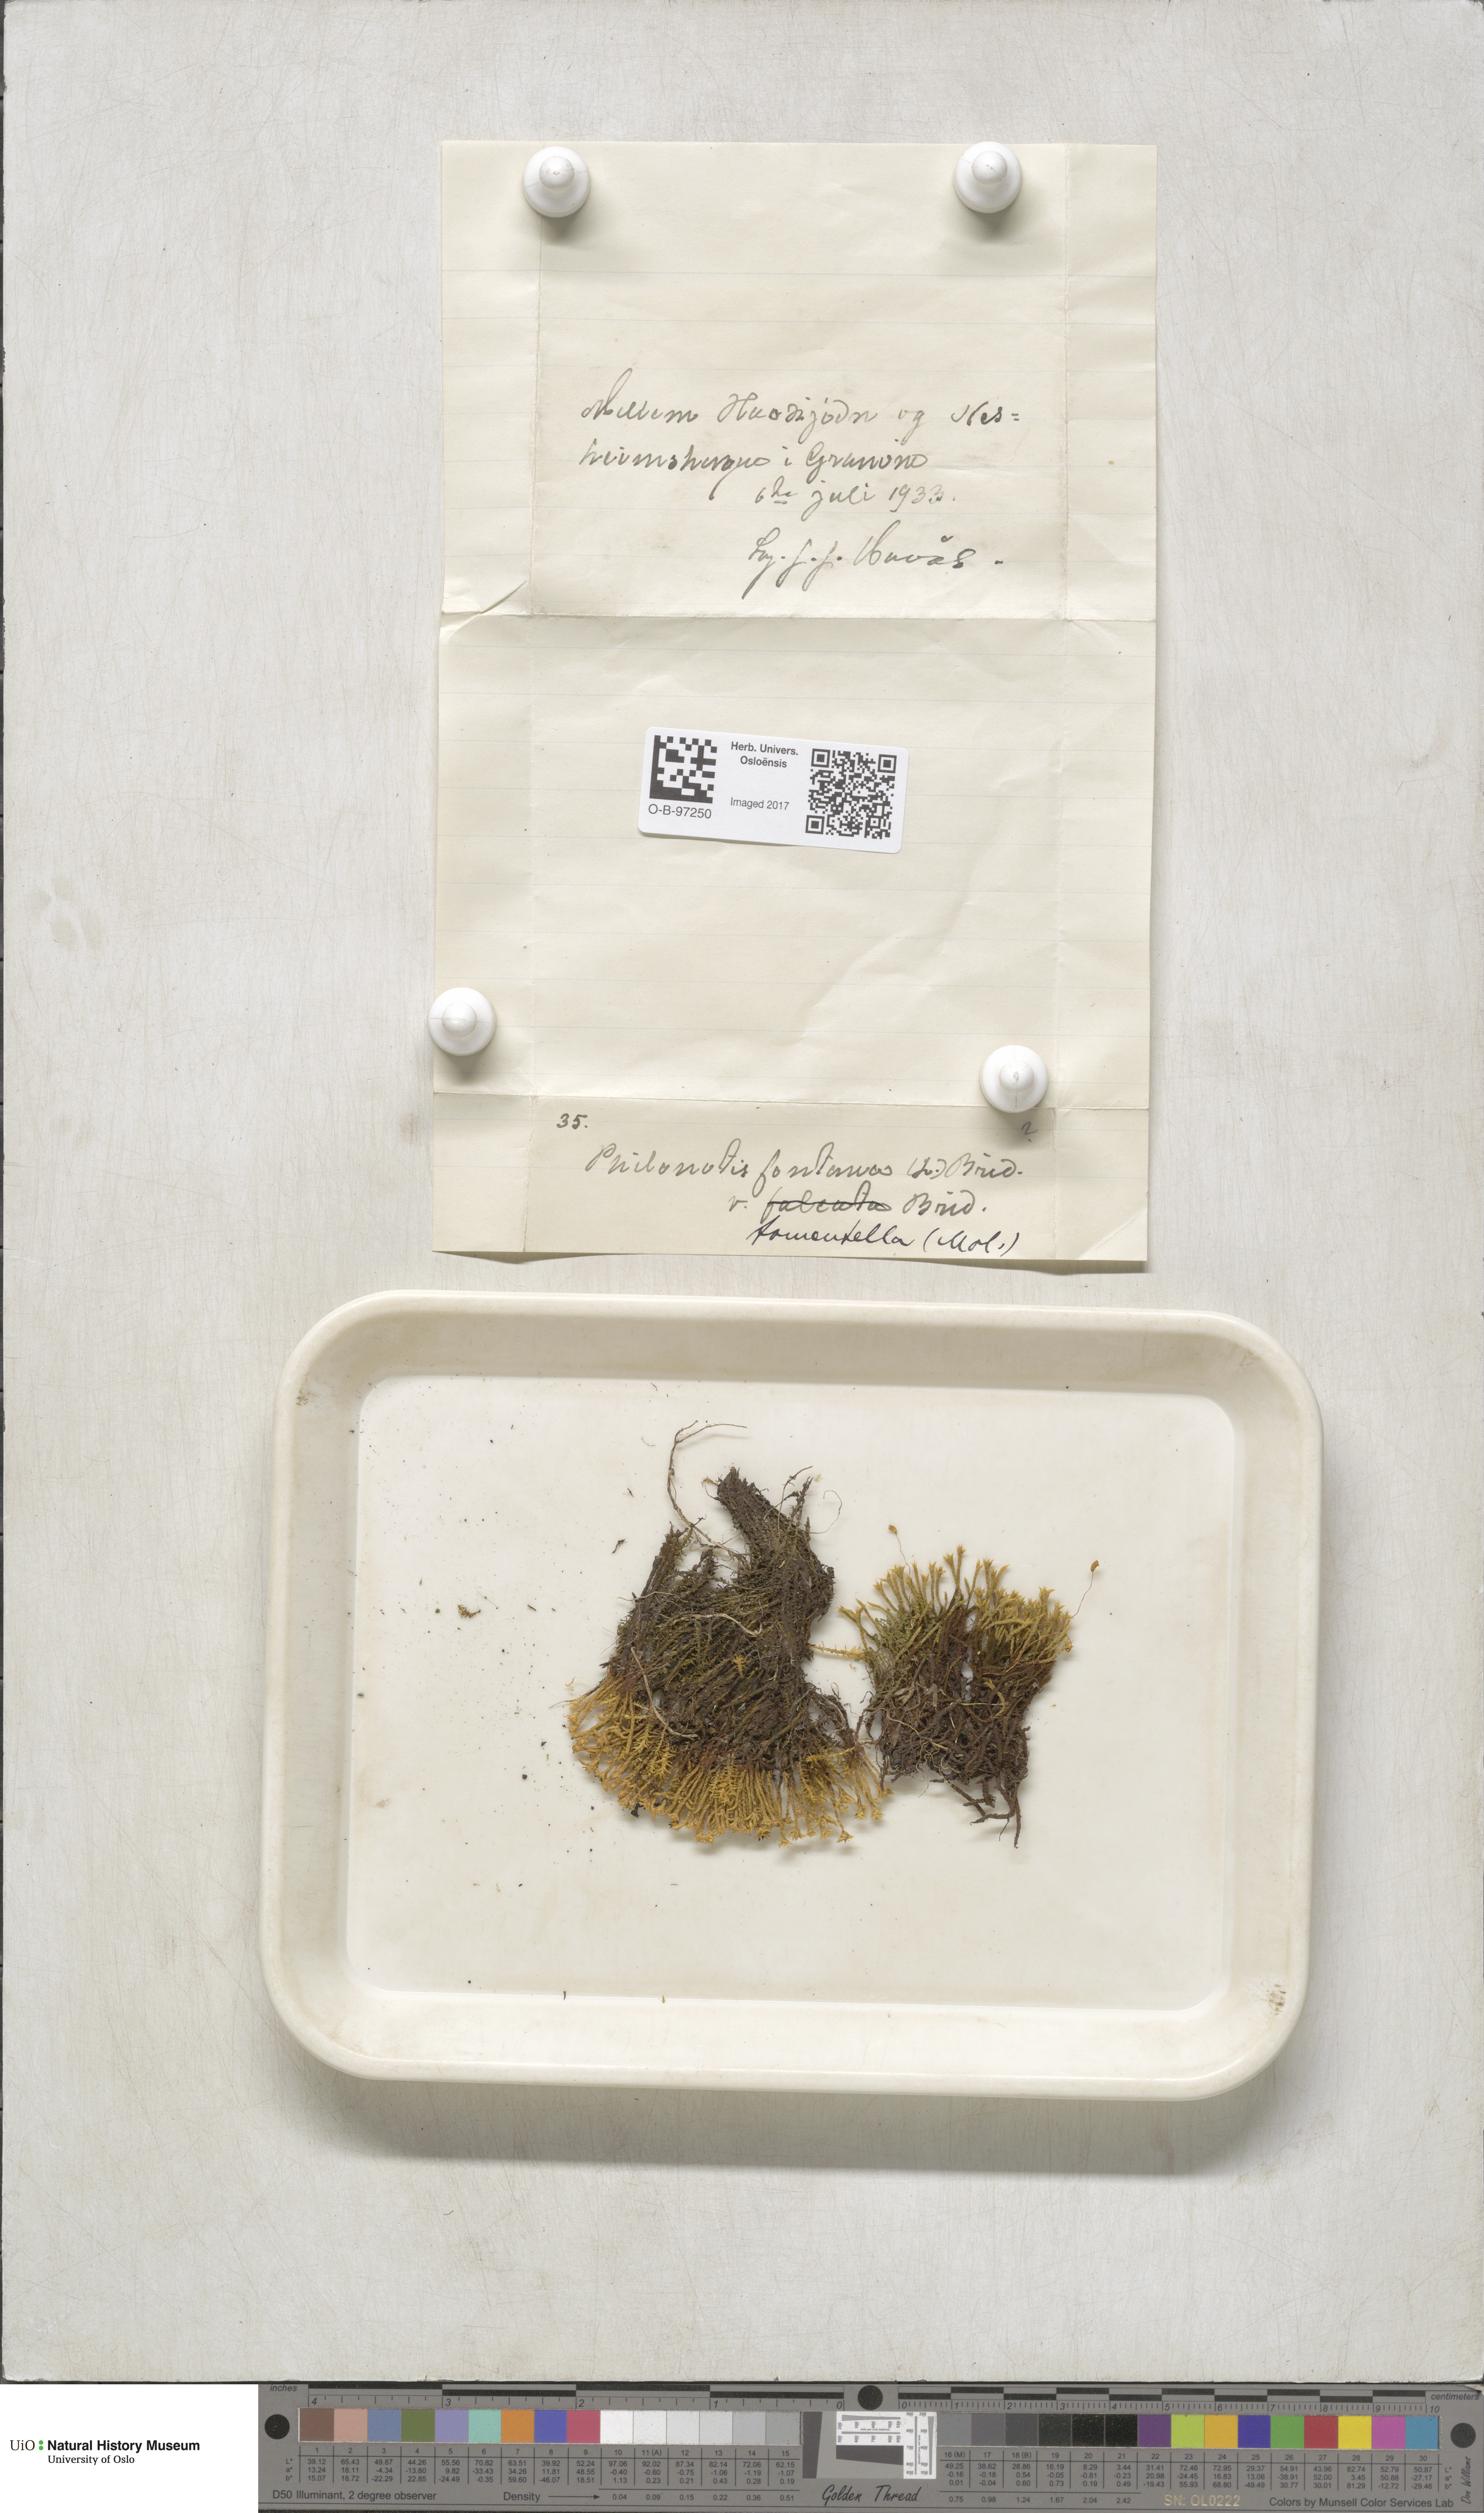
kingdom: Plantae
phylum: Bryophyta
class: Bryopsida
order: Bartramiales
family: Bartramiaceae
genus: Philonotis
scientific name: Philonotis tomentella
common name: Woolly apple moss
